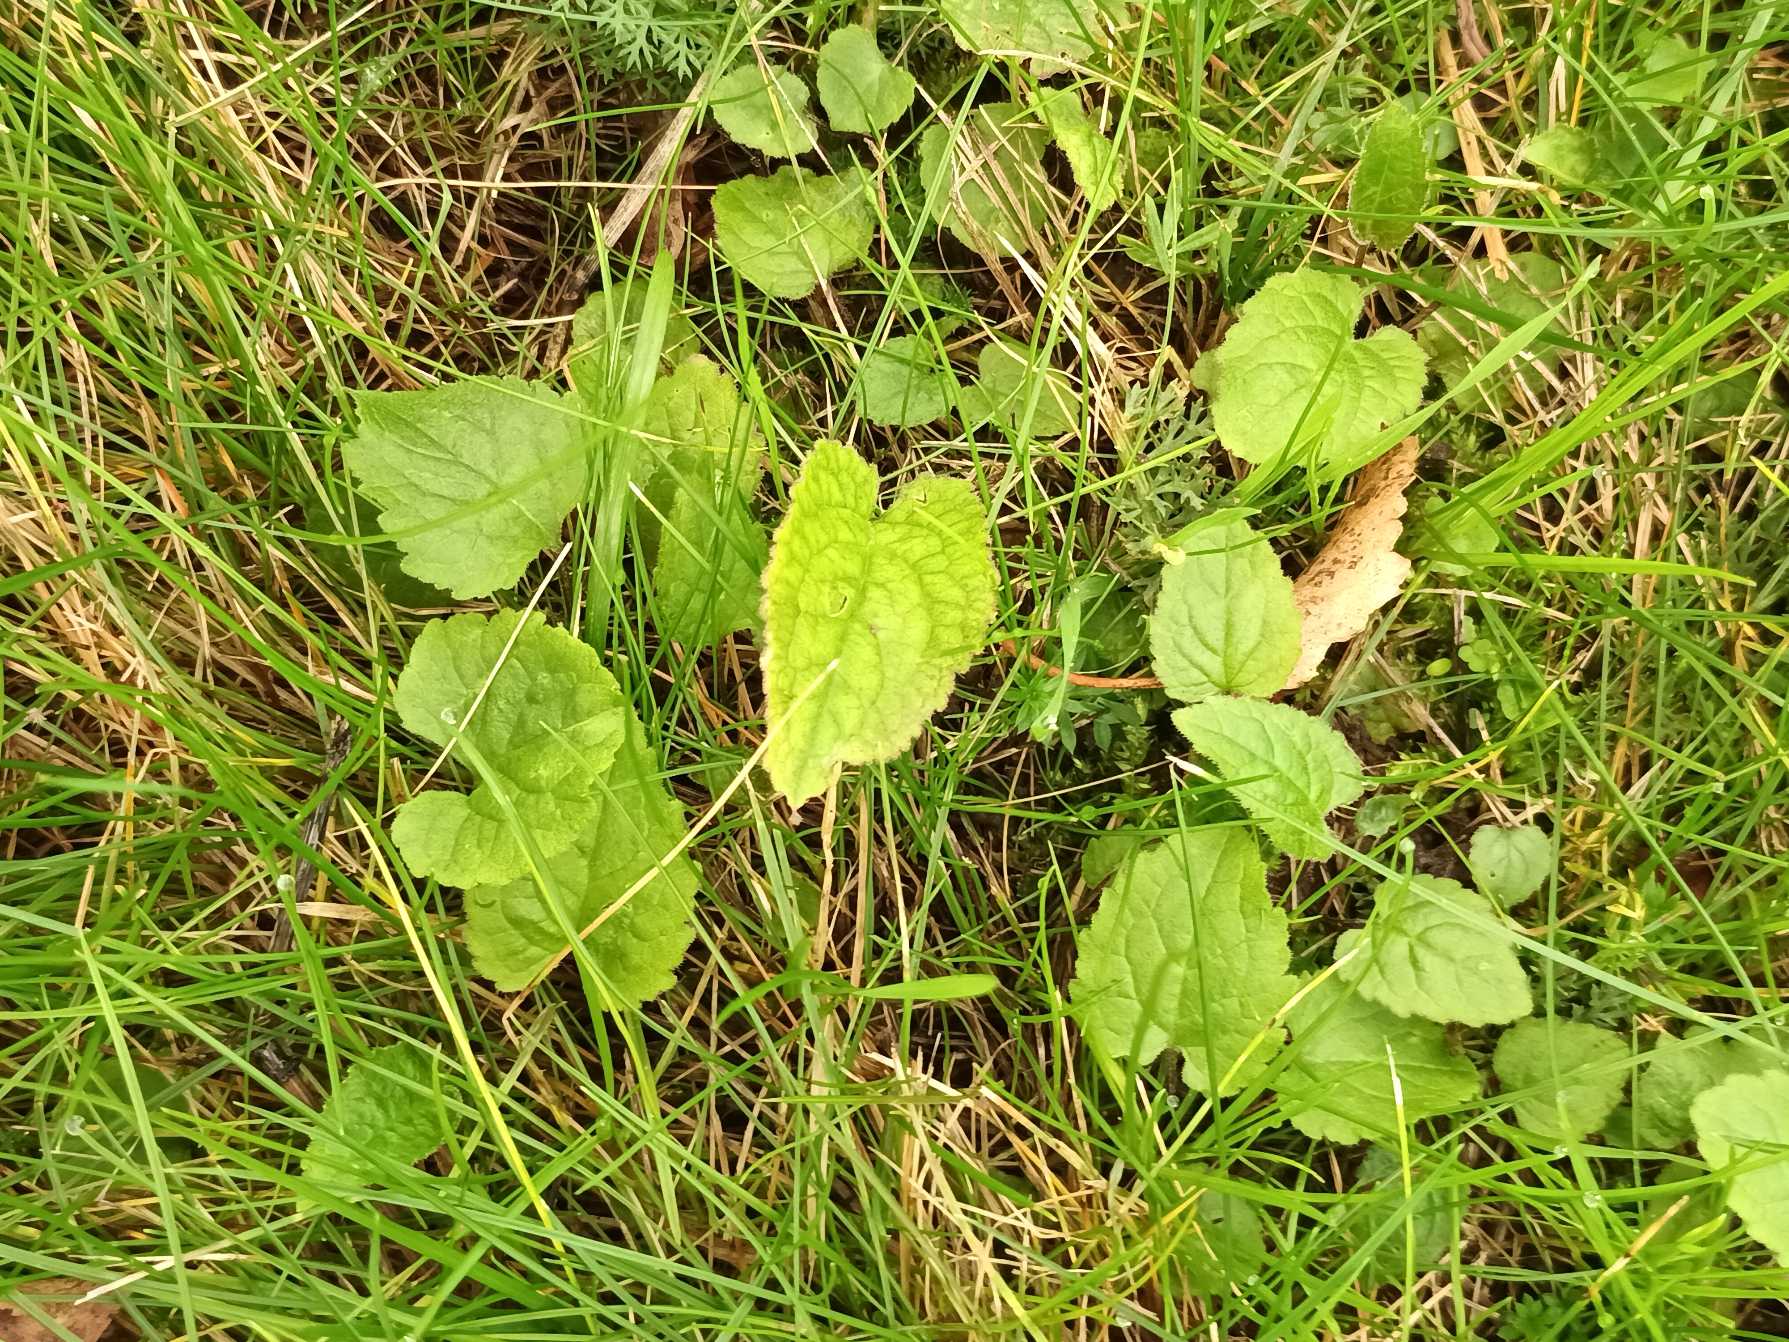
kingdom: Plantae
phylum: Tracheophyta
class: Magnoliopsida
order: Asterales
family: Campanulaceae
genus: Campanula
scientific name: Campanula rapunculoides
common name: Ensidig klokke
